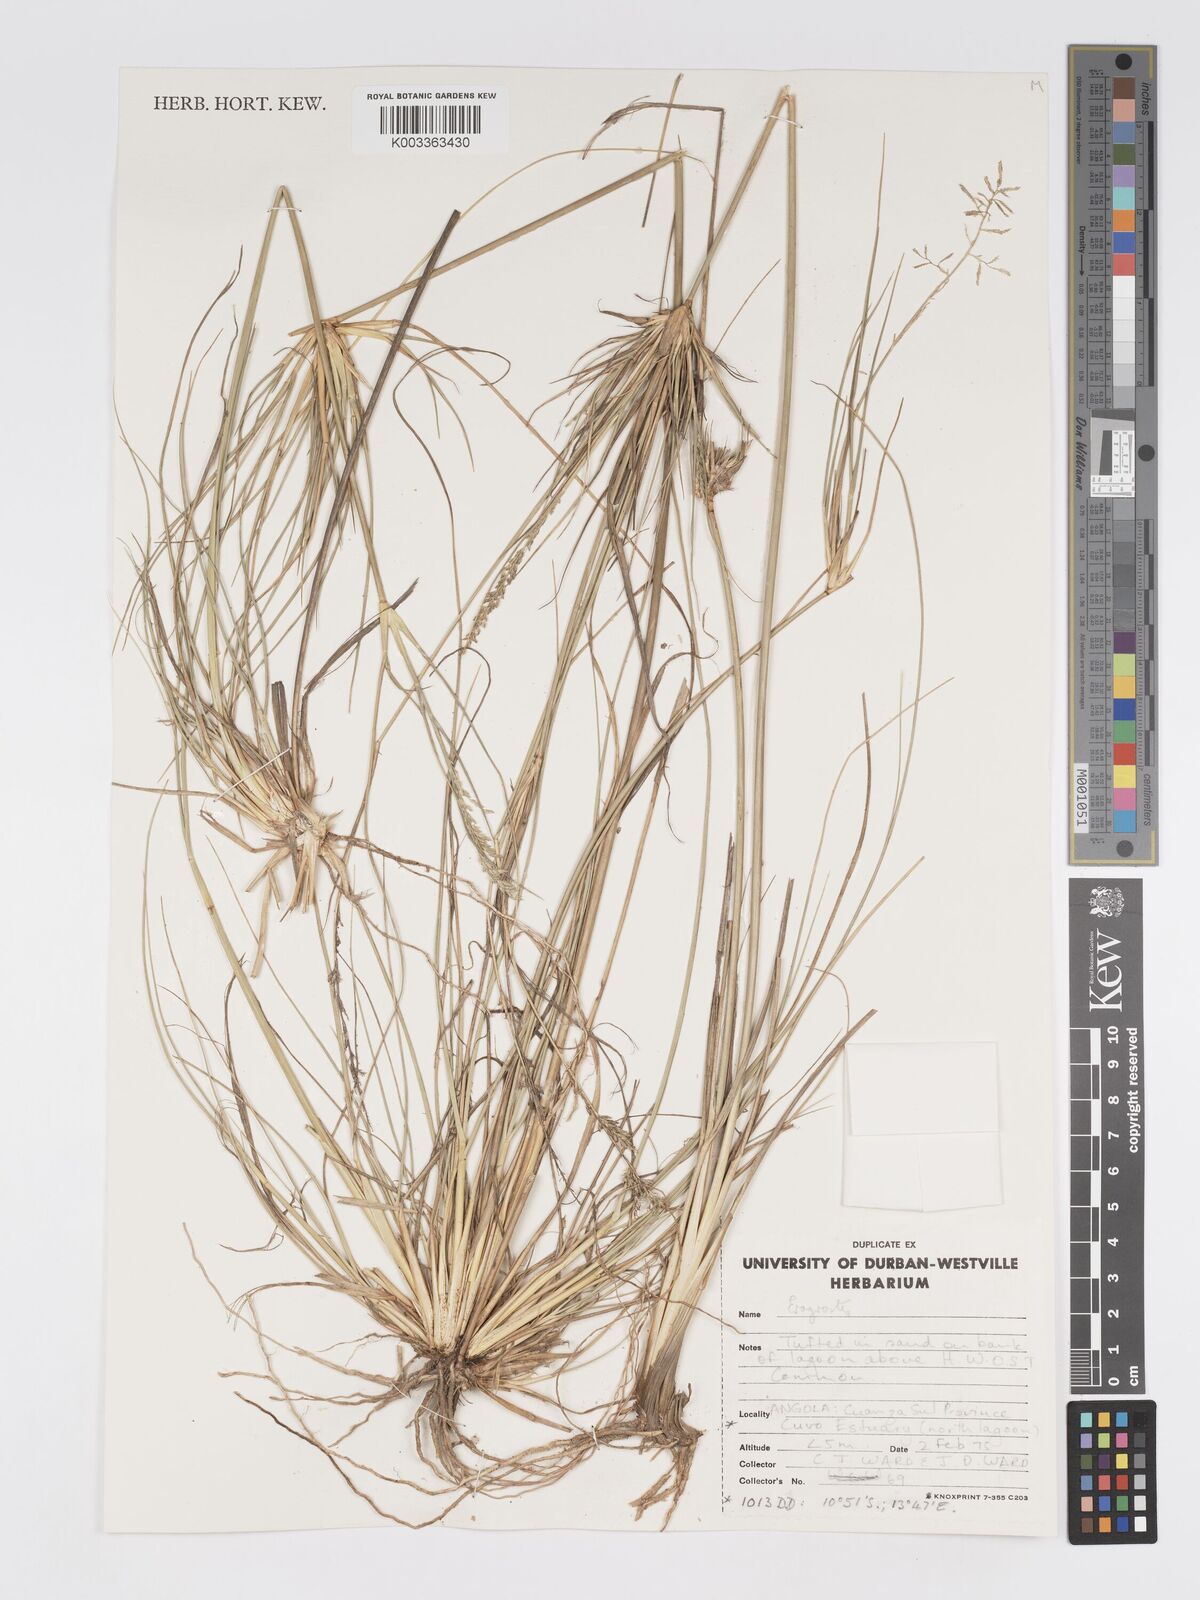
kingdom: Plantae
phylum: Tracheophyta
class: Liliopsida
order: Poales
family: Poaceae
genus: Eragrostis
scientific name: Eragrostis prolifera
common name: Dominican lovegrass
